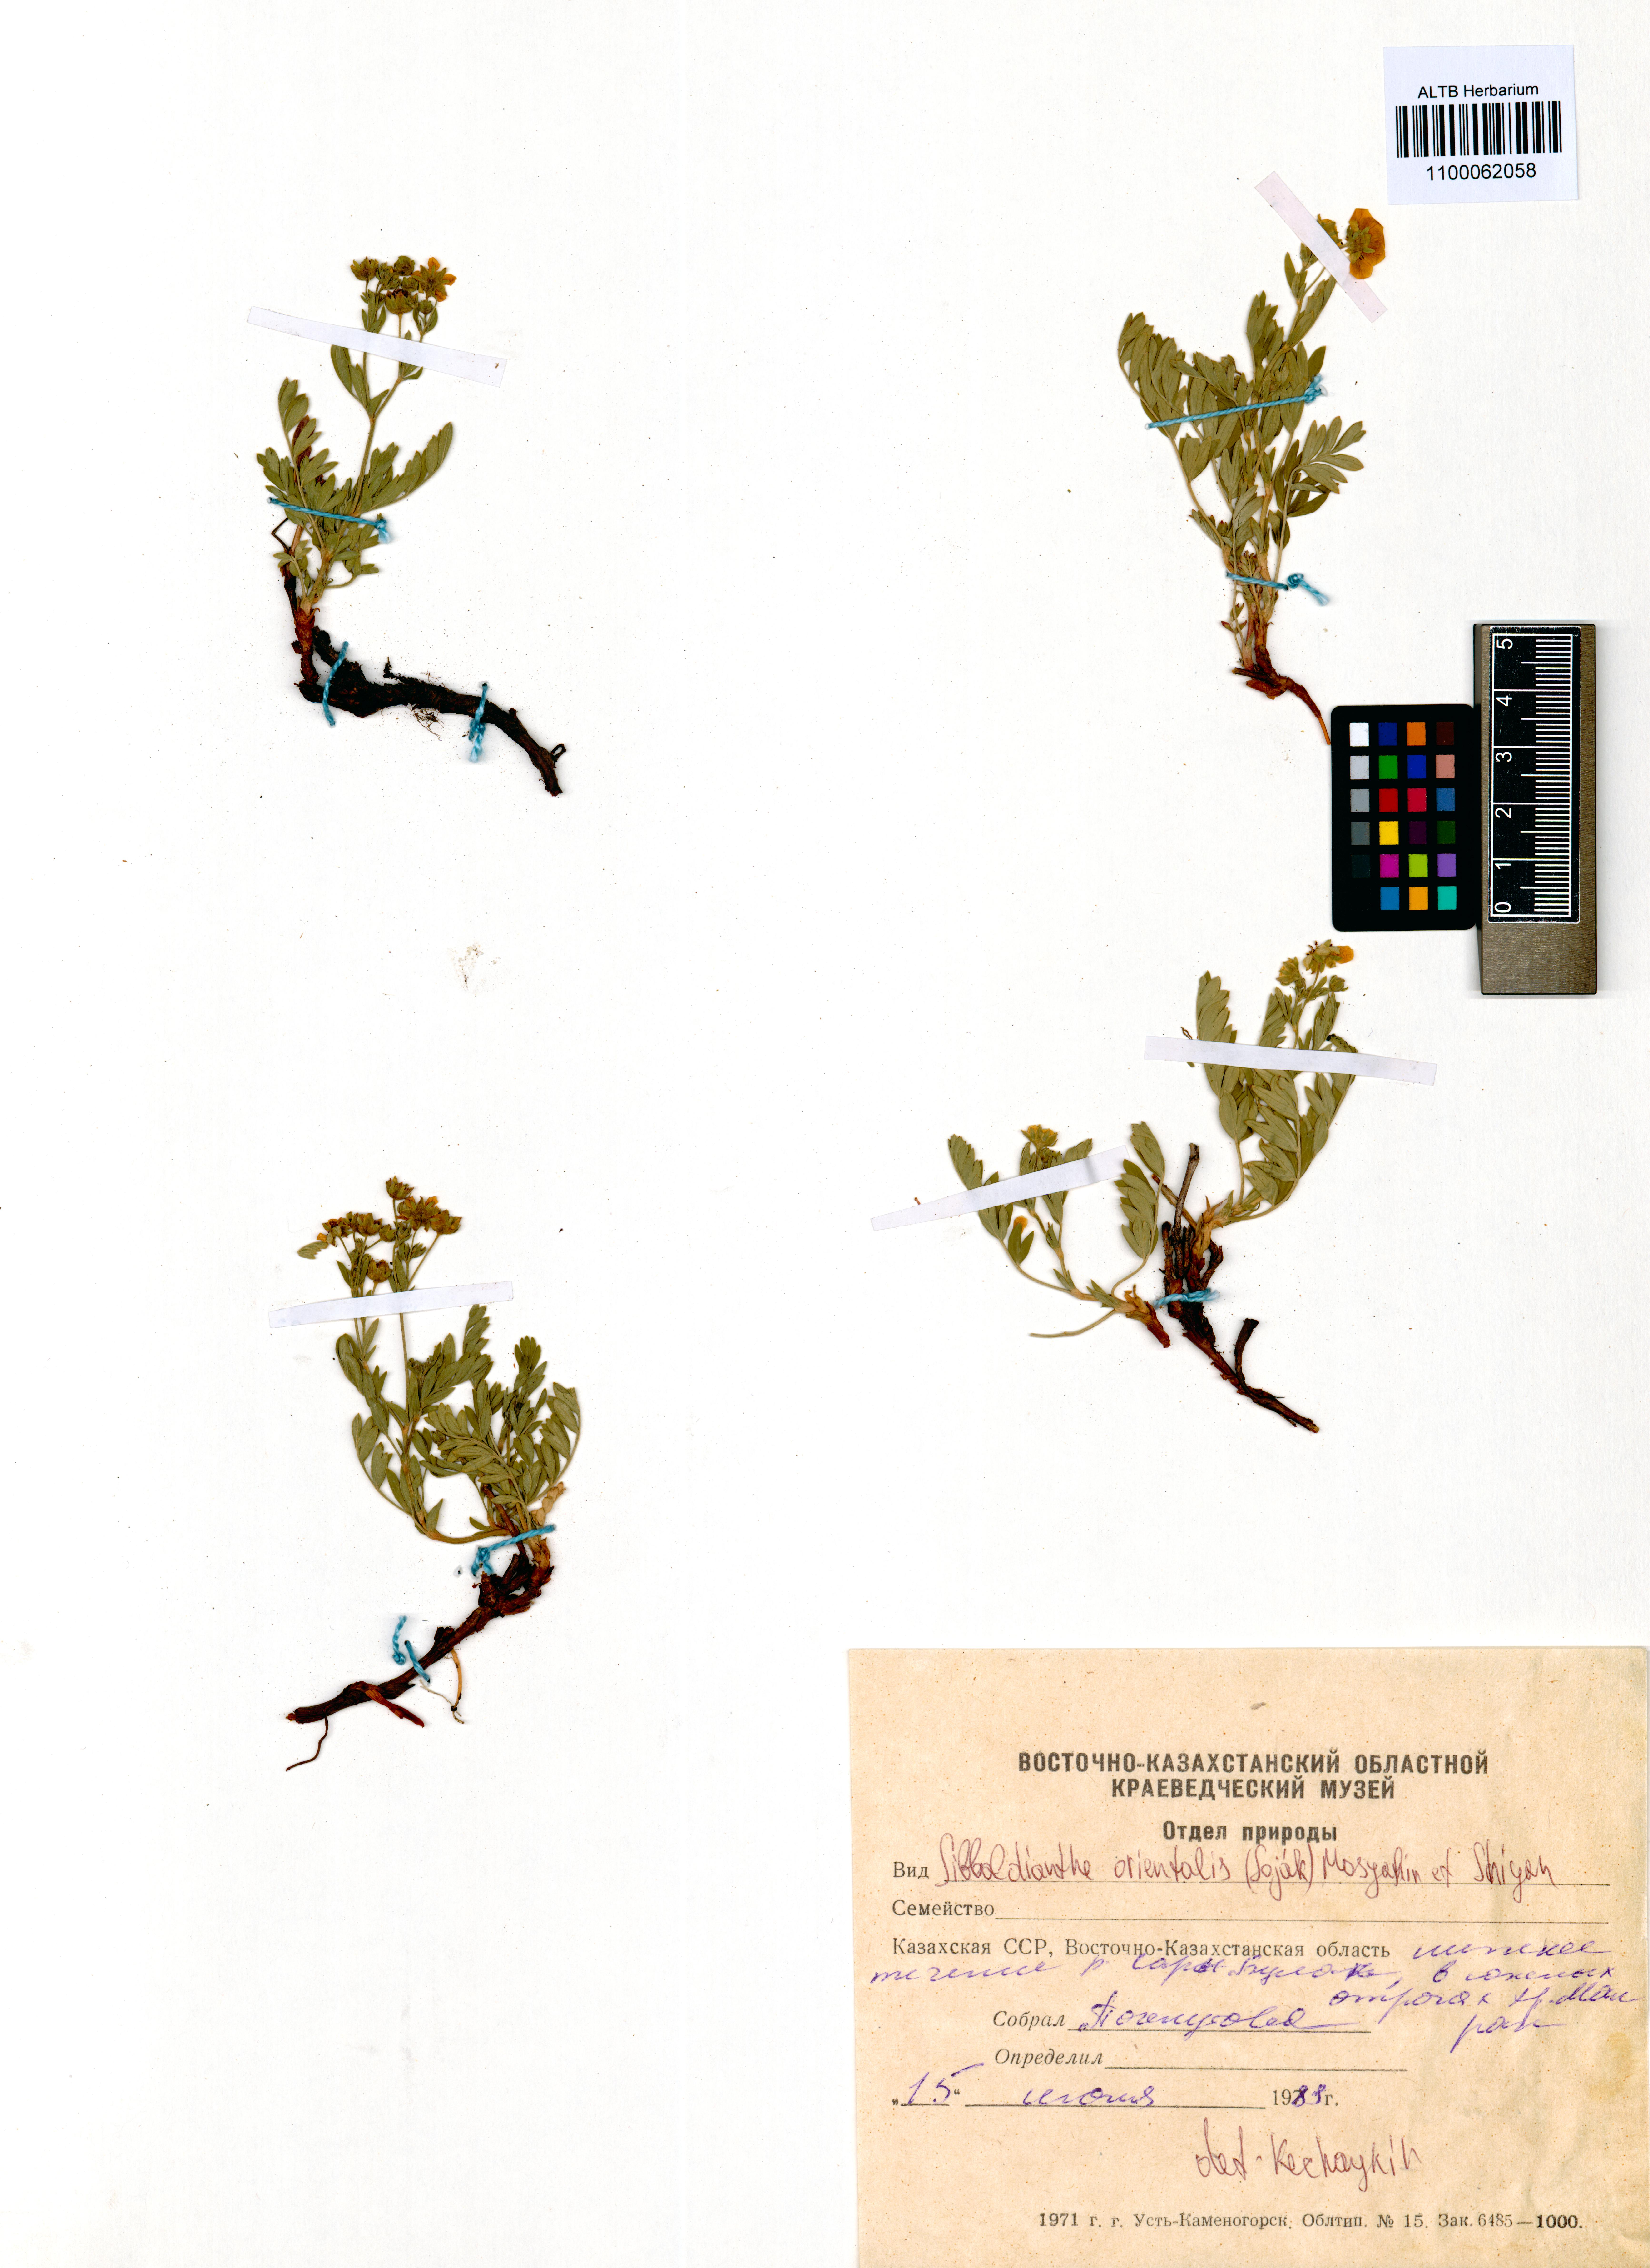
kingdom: Plantae
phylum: Tracheophyta
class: Magnoliopsida
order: Rosales
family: Rosaceae
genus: Sibbaldianthe
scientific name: Sibbaldianthe orientalis
